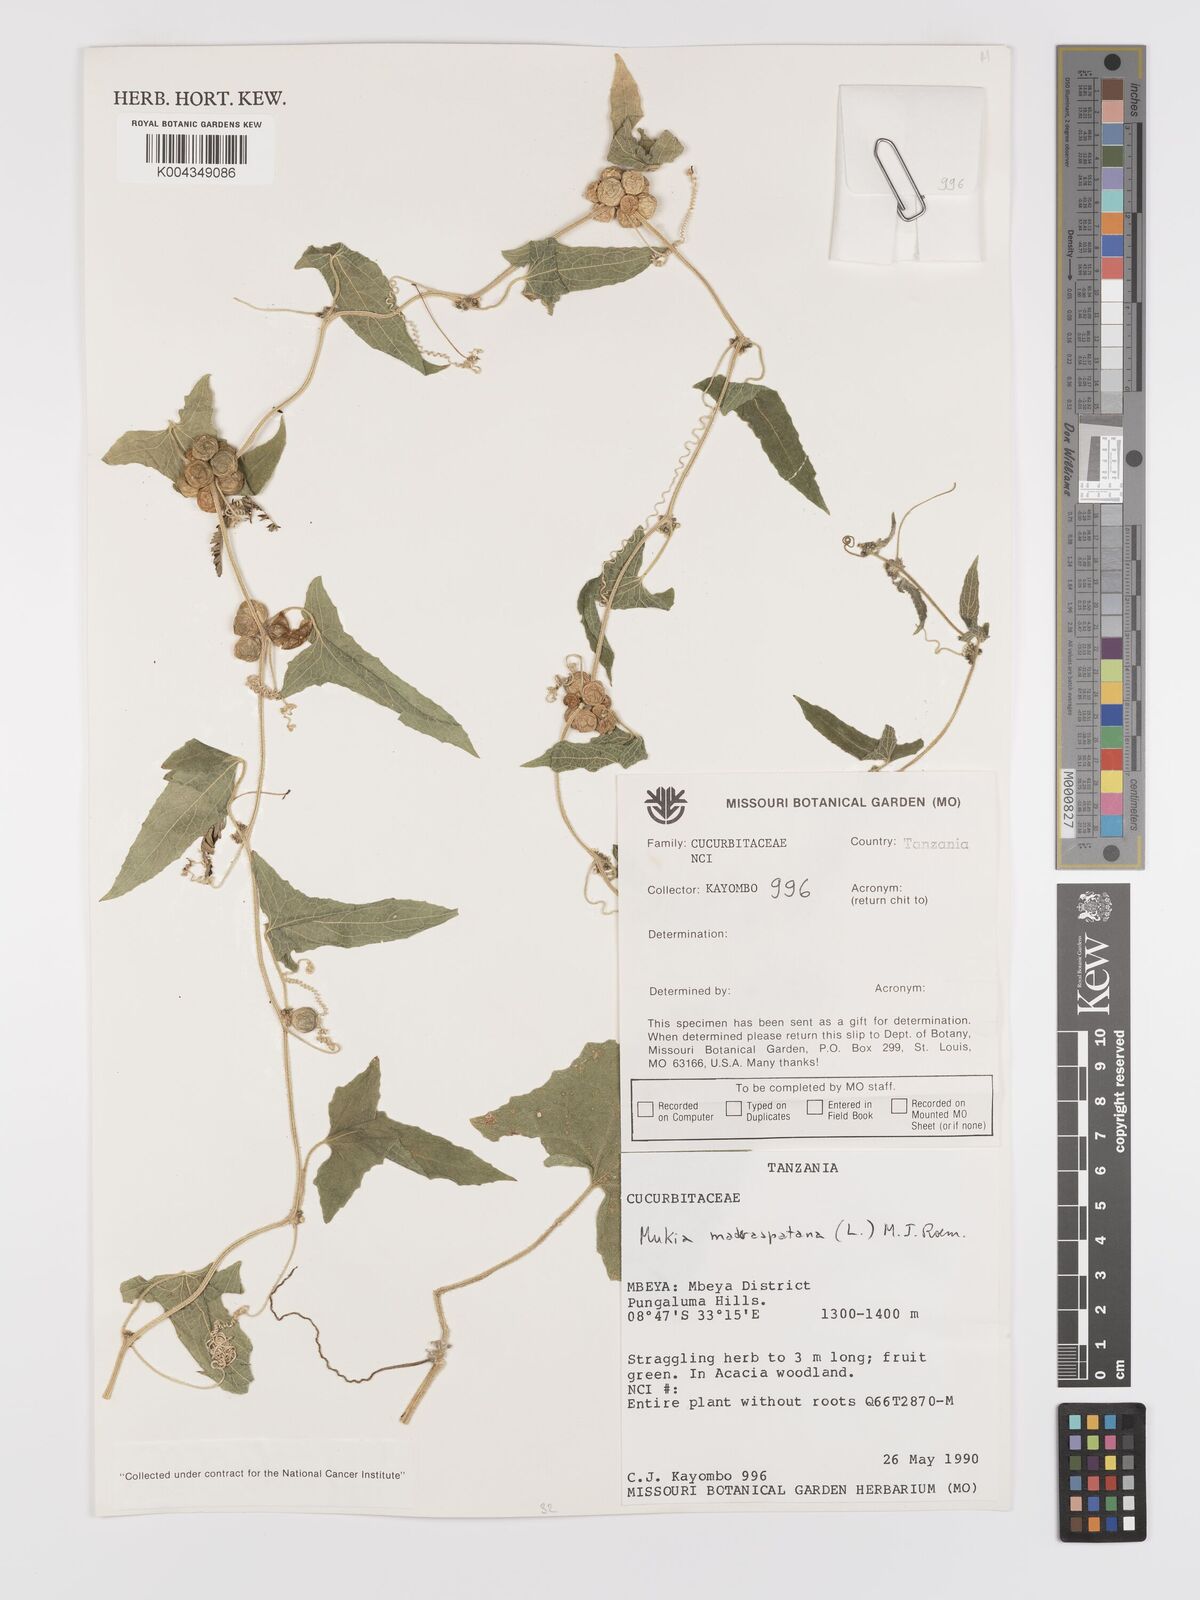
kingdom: Plantae
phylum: Tracheophyta
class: Magnoliopsida
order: Cucurbitales
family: Cucurbitaceae
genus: Cucumis
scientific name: Cucumis maderaspatanus
